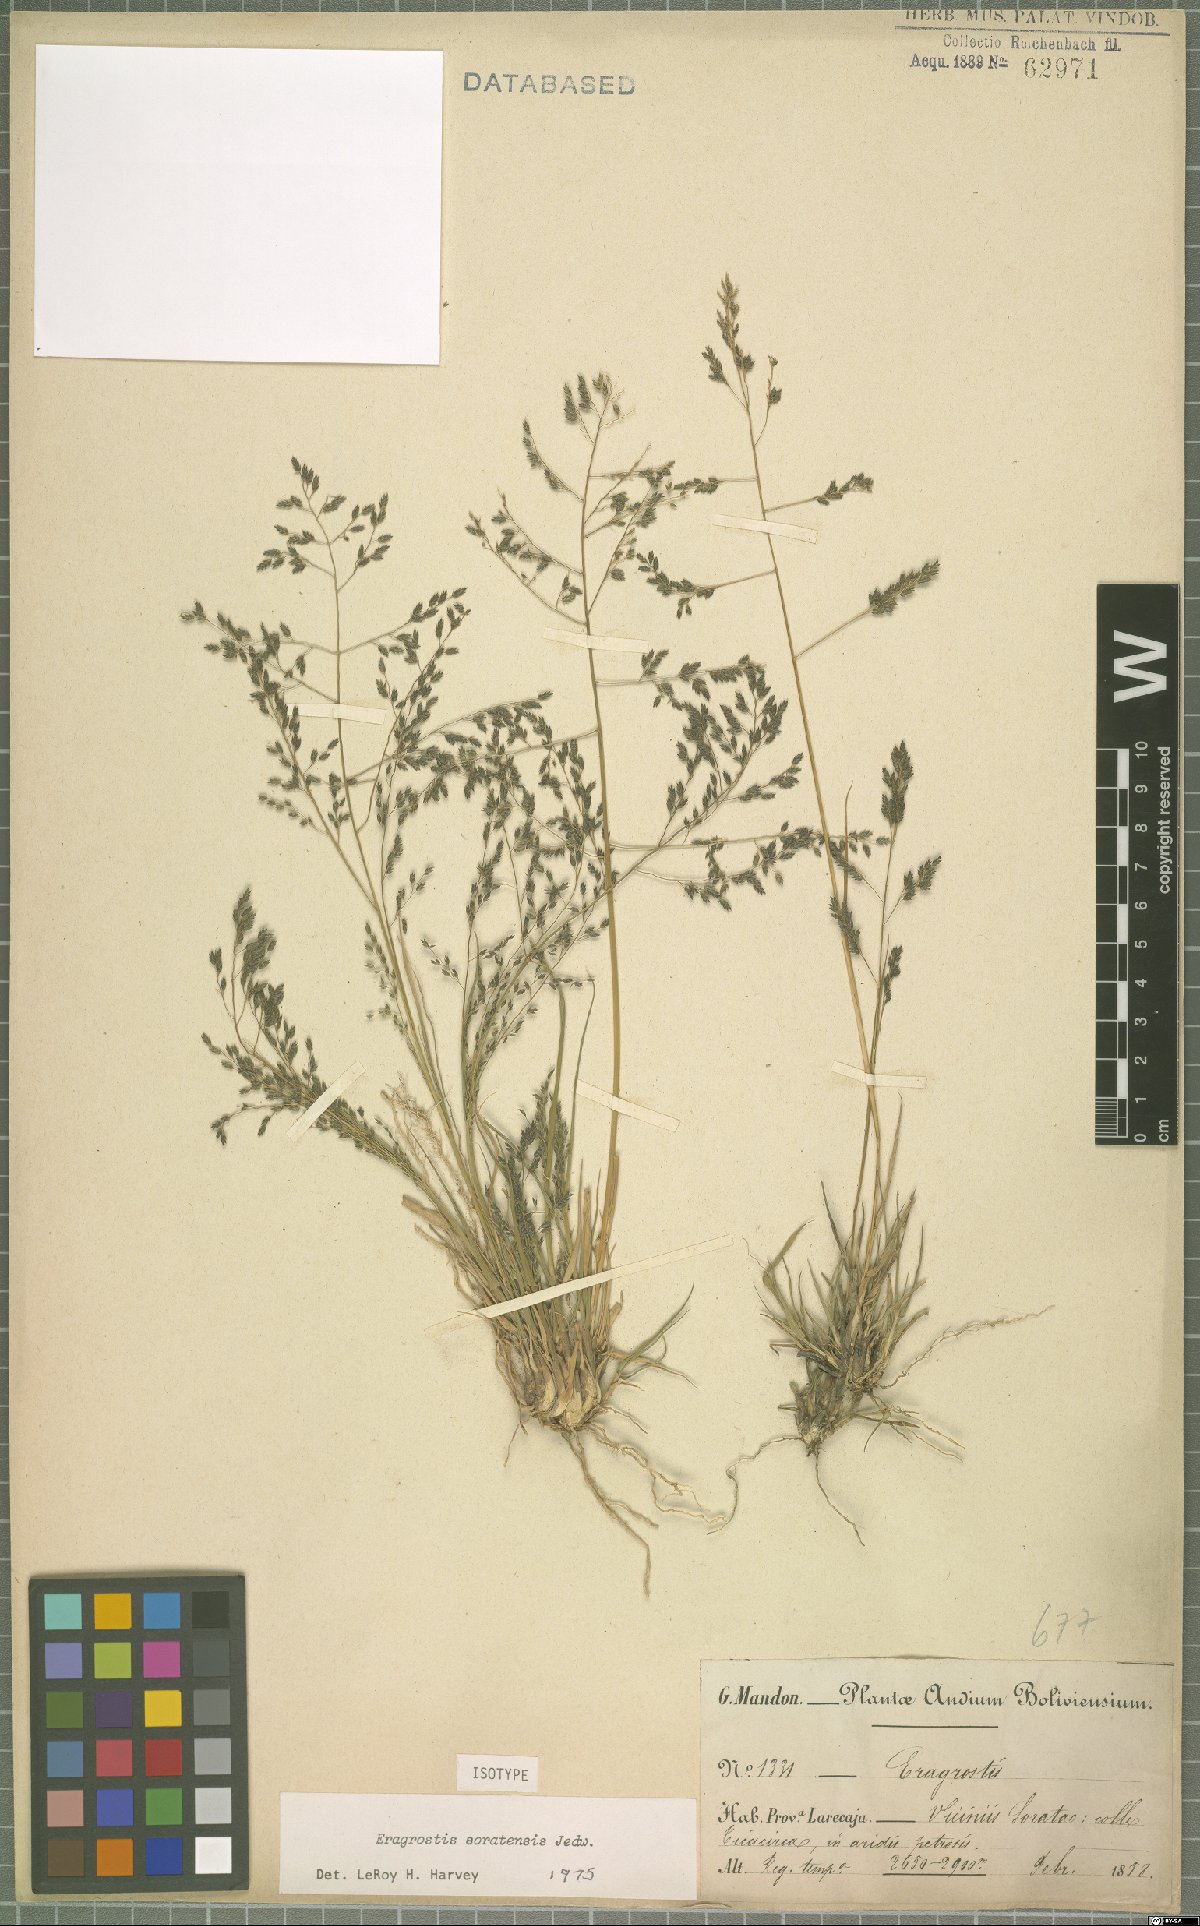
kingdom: Plantae
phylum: Tracheophyta
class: Liliopsida
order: Poales
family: Poaceae
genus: Eragrostis
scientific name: Eragrostis soratensis
